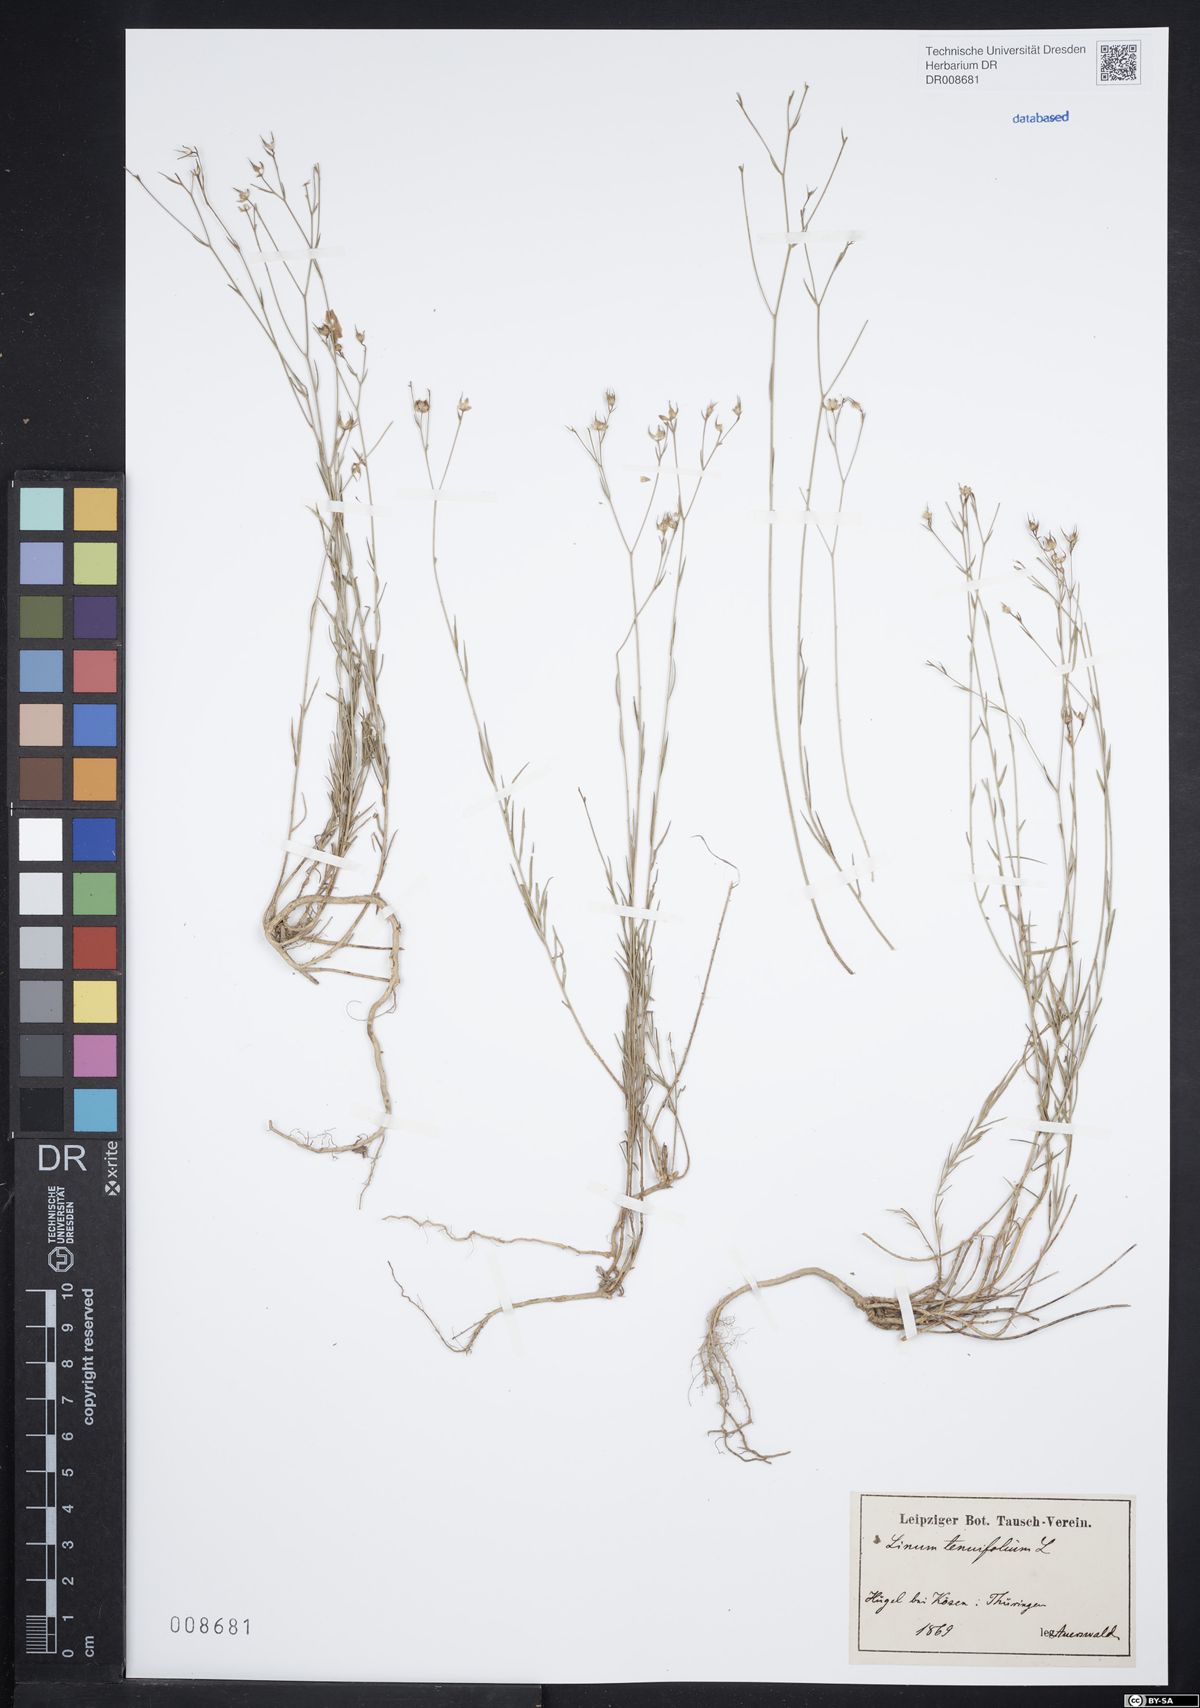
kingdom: Plantae
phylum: Tracheophyta
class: Magnoliopsida
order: Malpighiales
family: Linaceae
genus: Linum
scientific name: Linum tenuifolium
